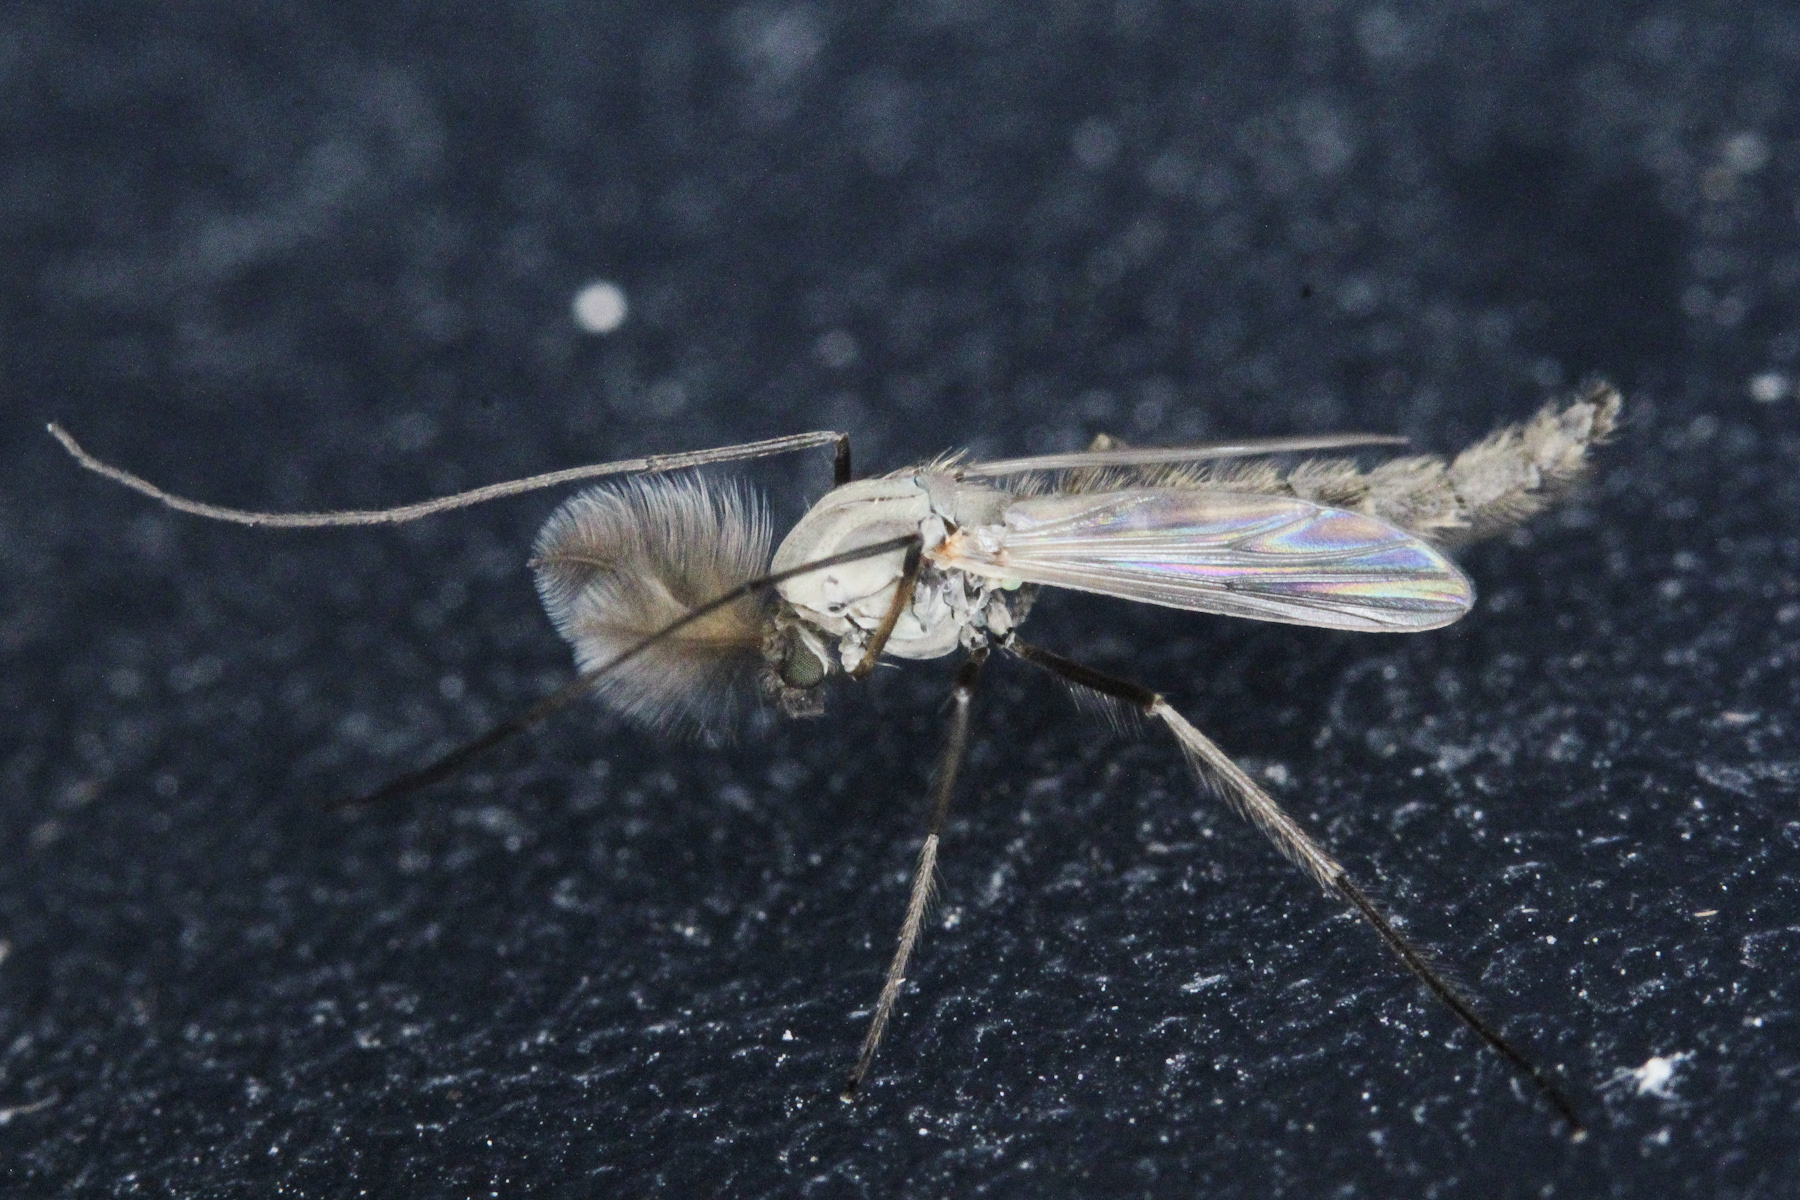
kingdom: Animalia
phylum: Arthropoda
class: Insecta
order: Diptera
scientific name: Diptera
